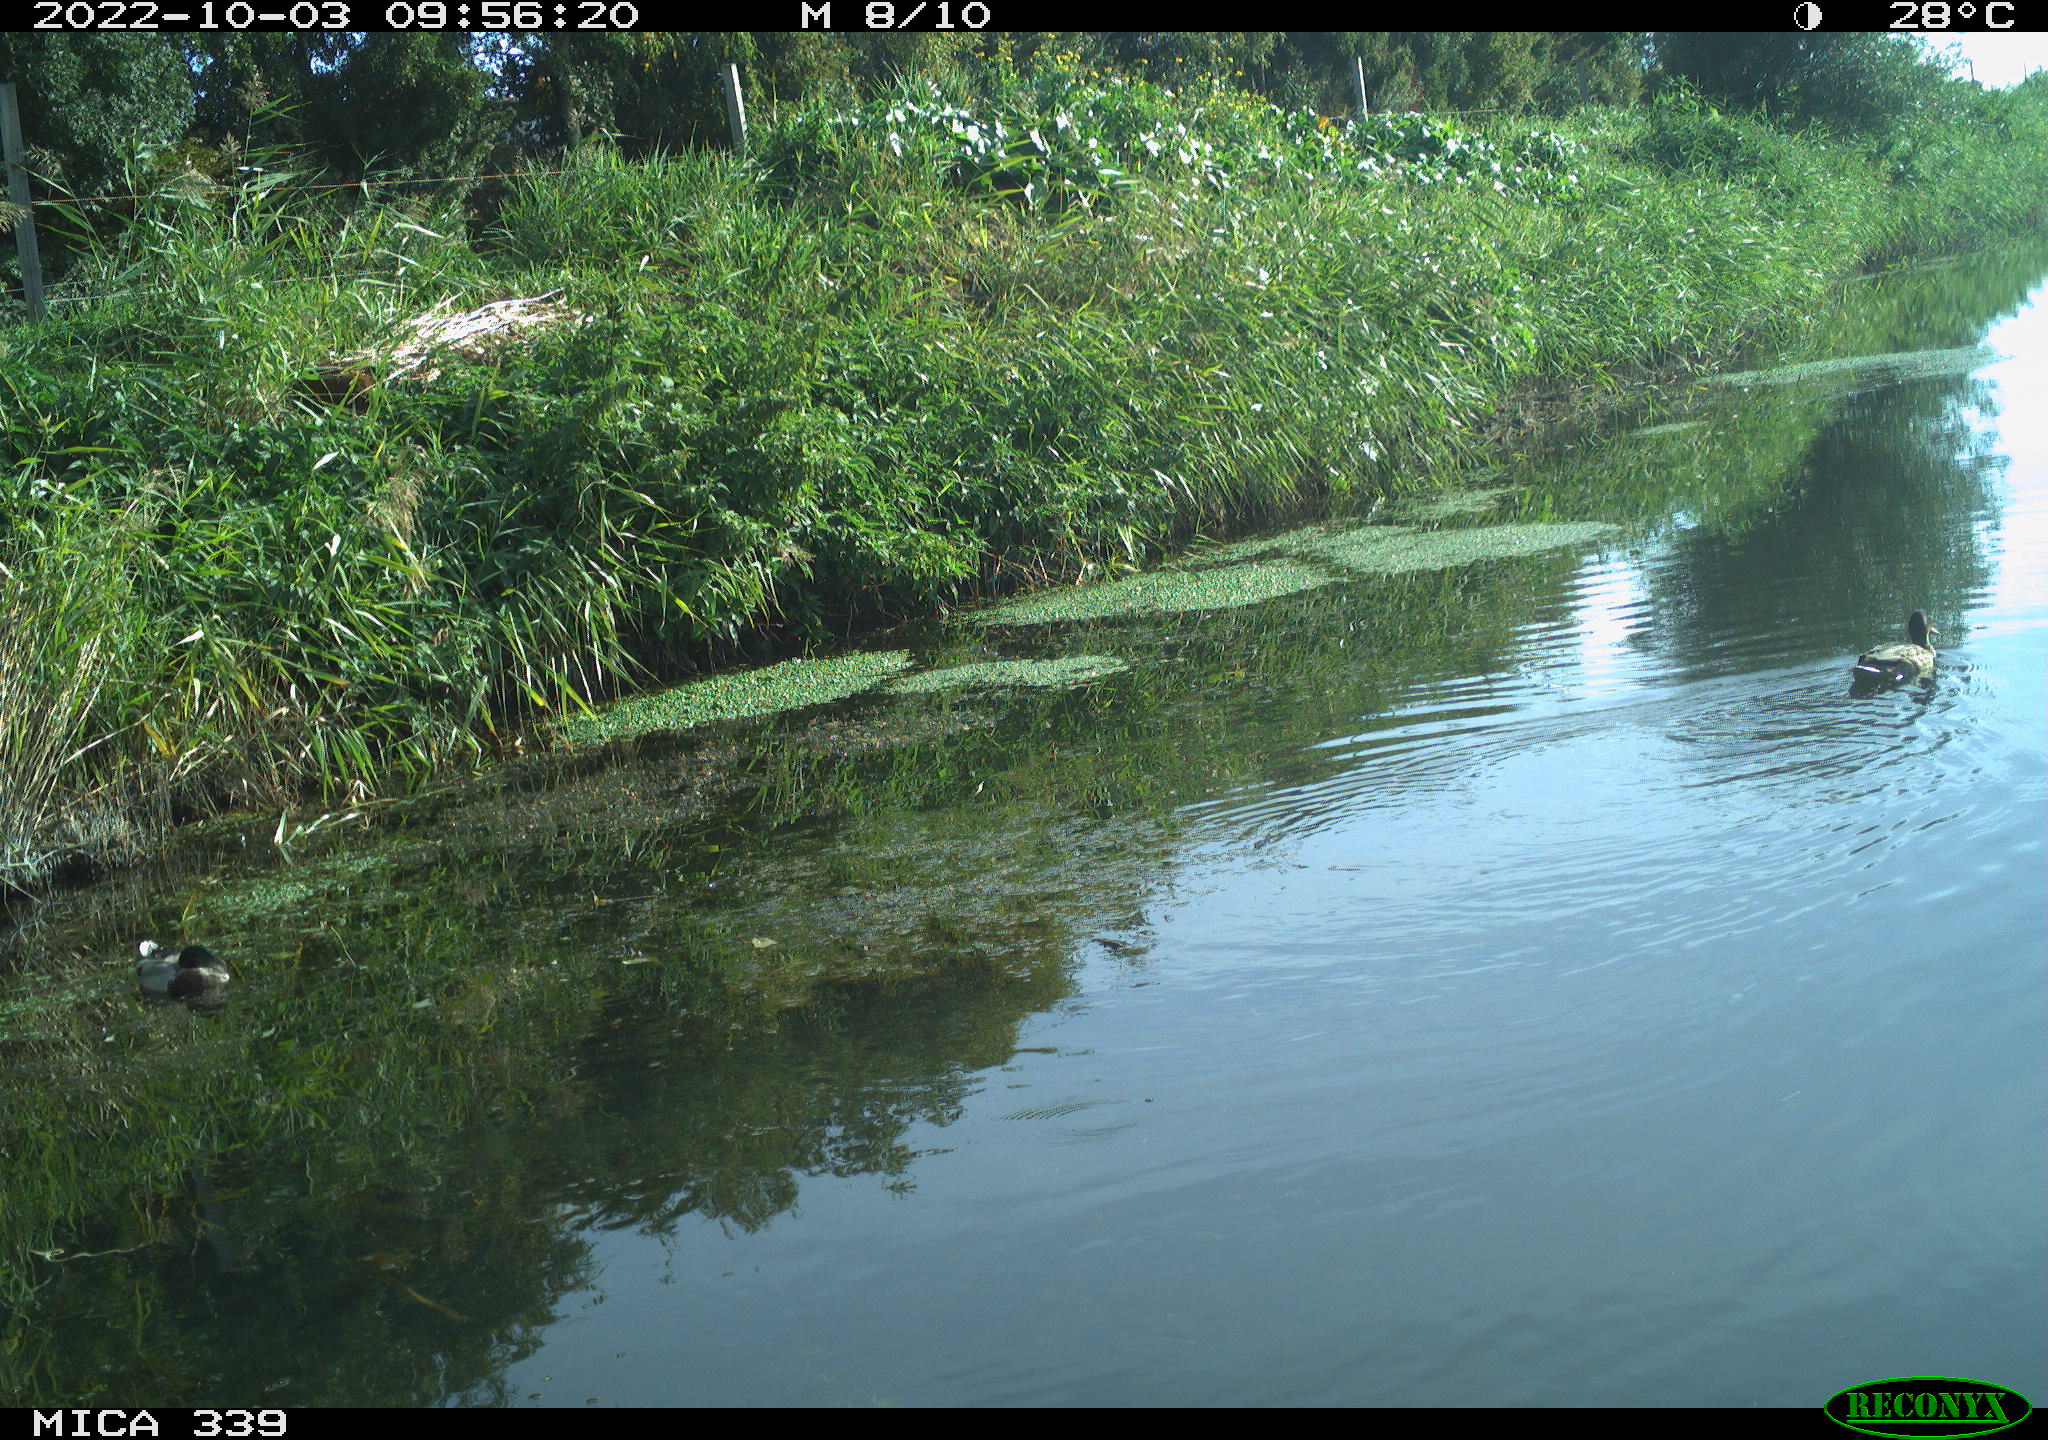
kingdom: Animalia
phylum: Chordata
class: Aves
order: Anseriformes
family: Anatidae
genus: Anas
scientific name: Anas platyrhynchos
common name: Mallard
